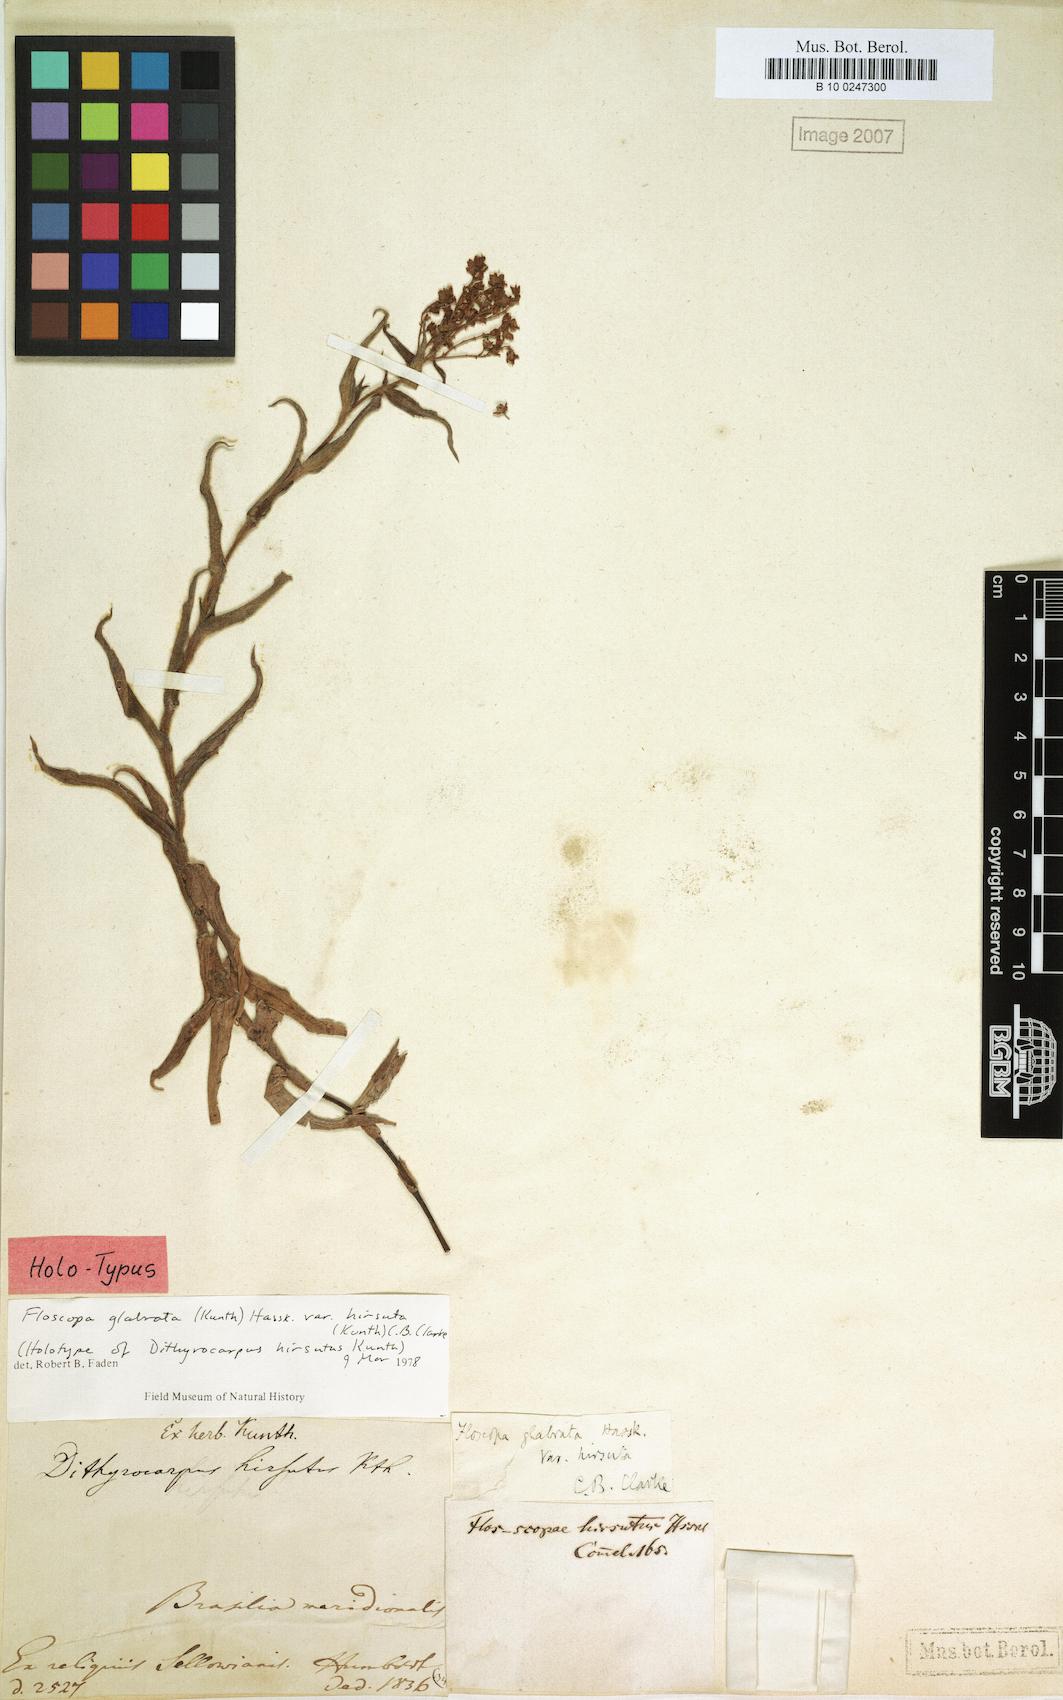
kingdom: Plantae
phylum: Tracheophyta
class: Liliopsida
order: Commelinales
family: Commelinaceae
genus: Floscopa
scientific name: Floscopa glabrata
